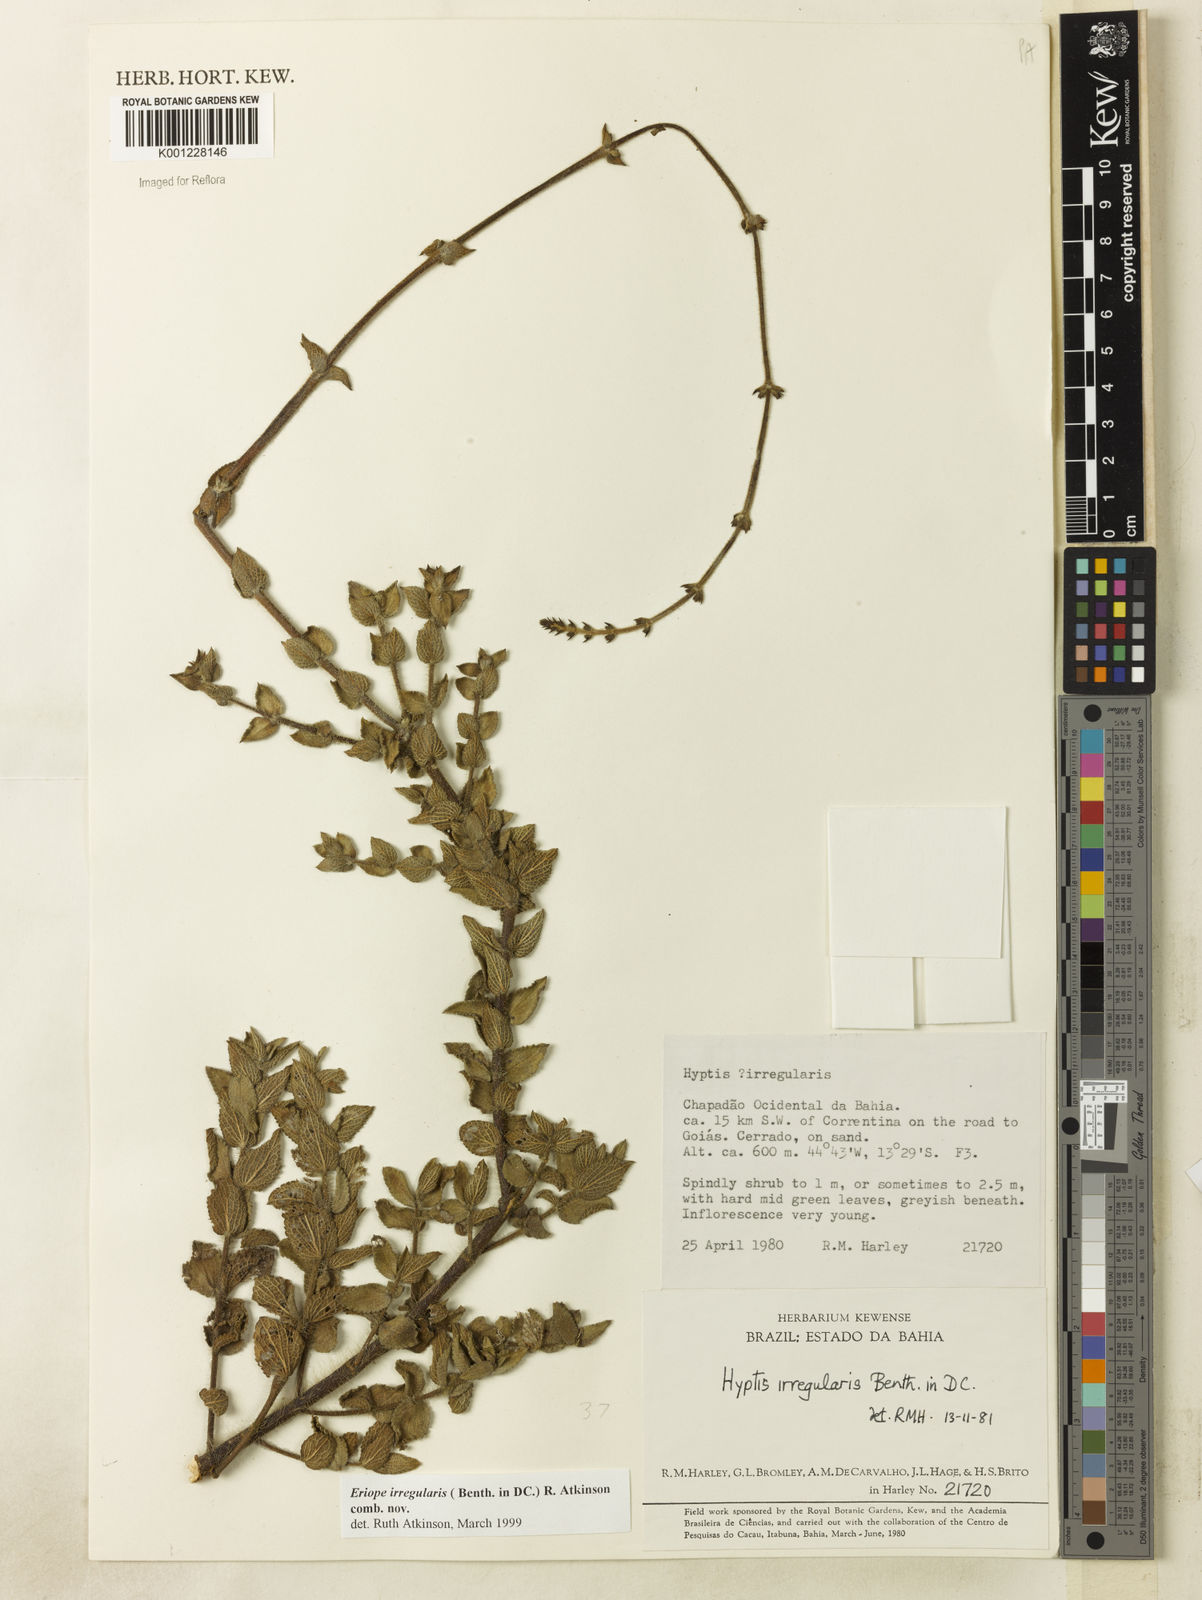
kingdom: Plantae
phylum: Tracheophyta
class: Magnoliopsida
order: Lamiales
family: Lamiaceae
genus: Hypenia
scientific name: Hypenia irregularis
